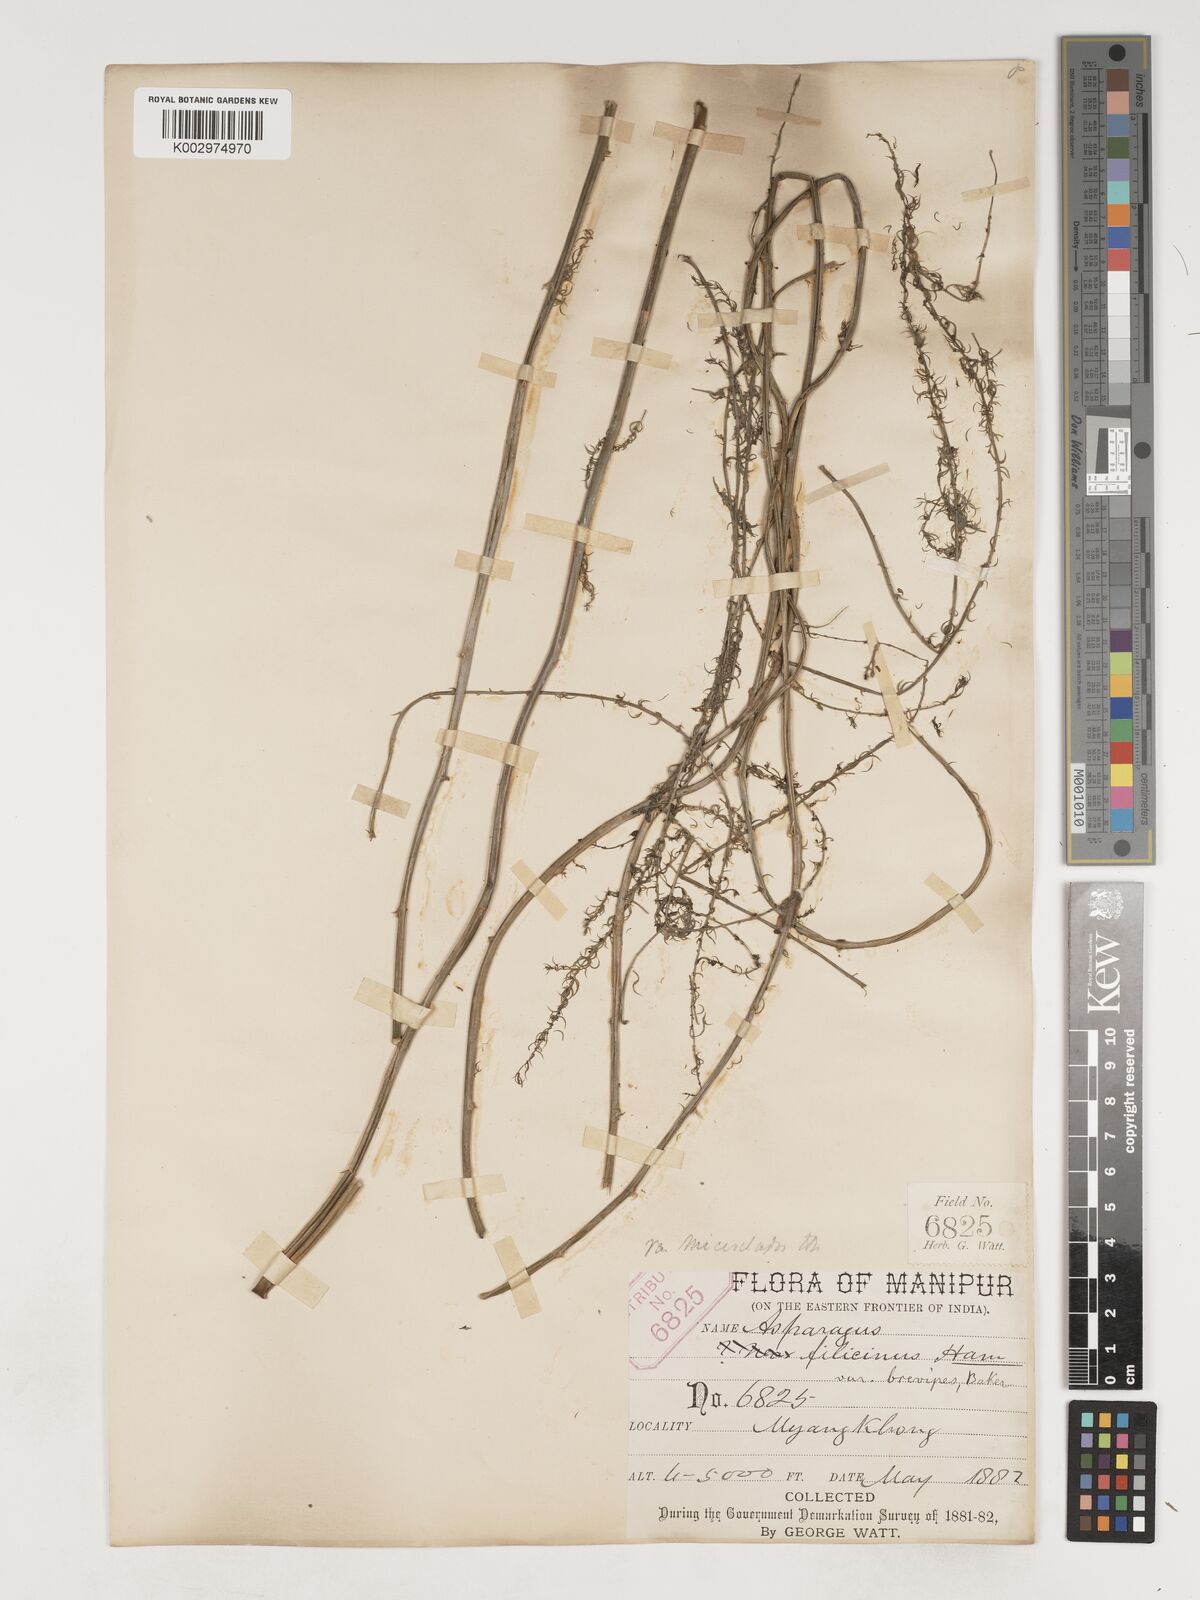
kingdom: Plantae
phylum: Tracheophyta
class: Liliopsida
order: Asparagales
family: Asparagaceae
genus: Asparagus
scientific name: Asparagus filicinus
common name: Fern asparagus
